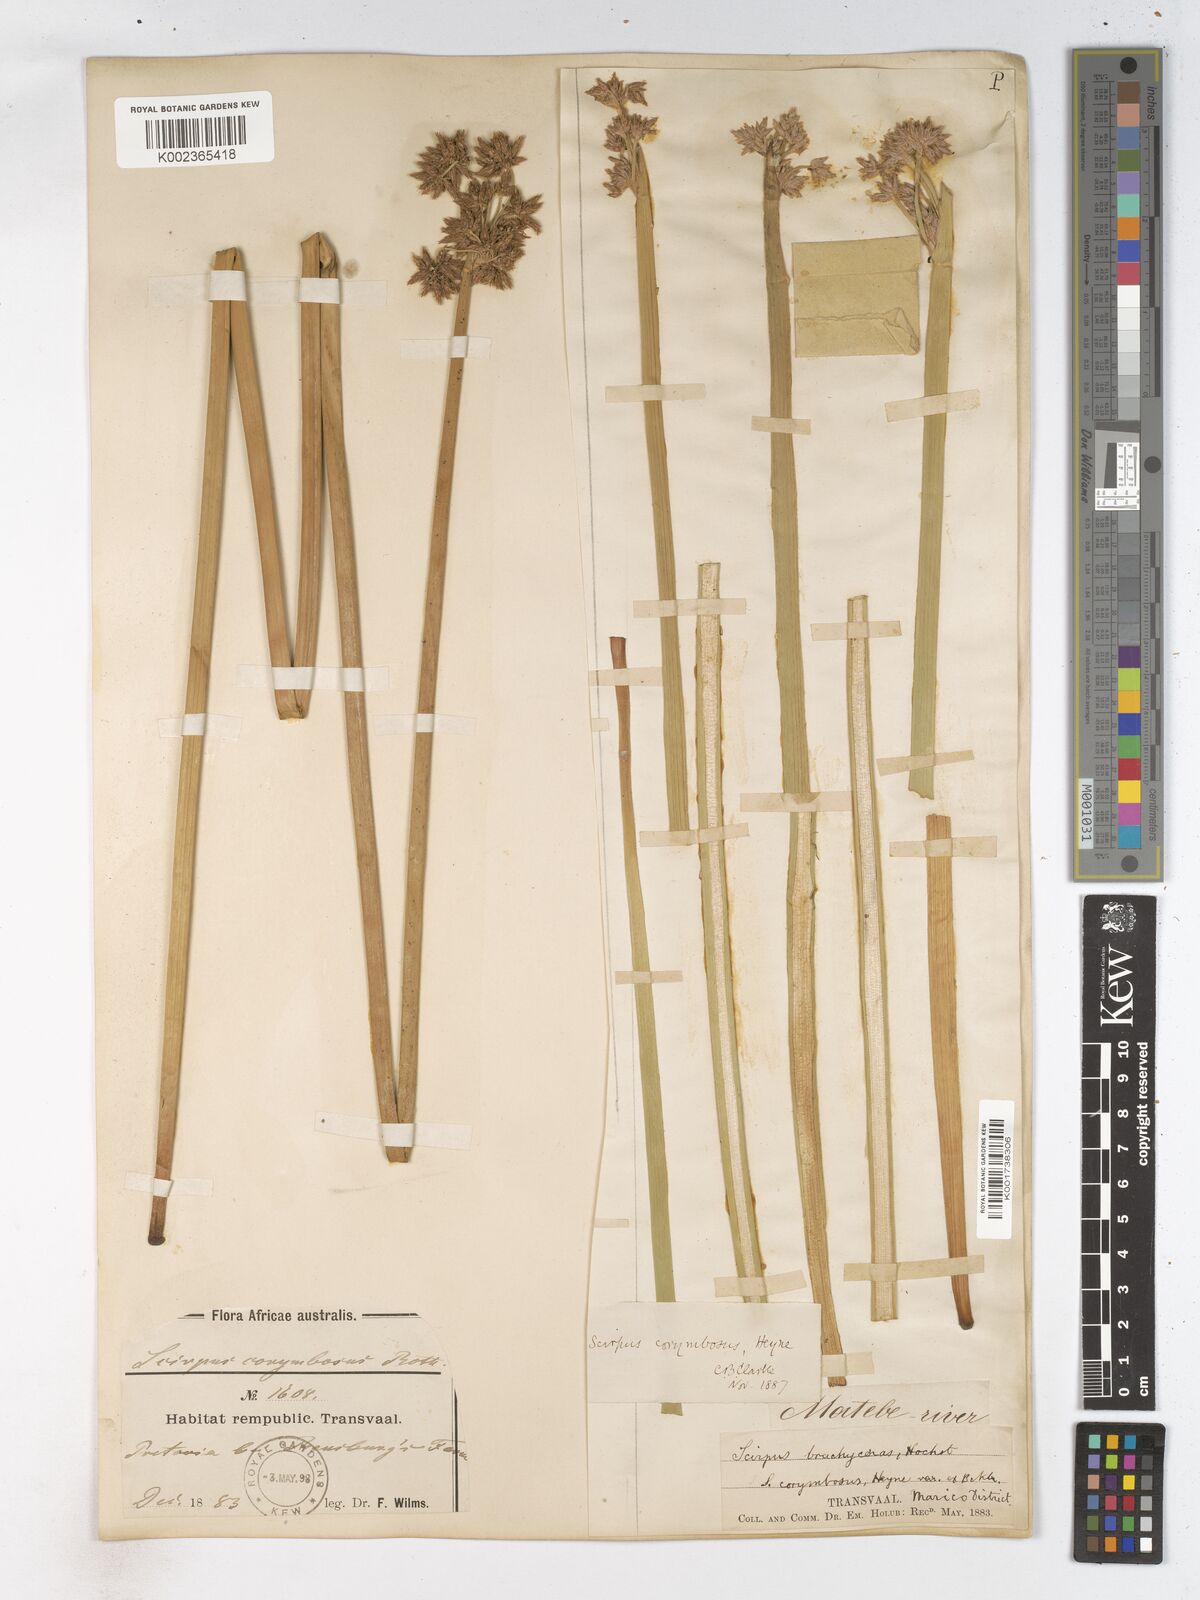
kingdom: Plantae
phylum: Tracheophyta
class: Liliopsida
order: Poales
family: Cyperaceae
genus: Schoenoplectiella
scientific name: Schoenoplectiella brachyceras
